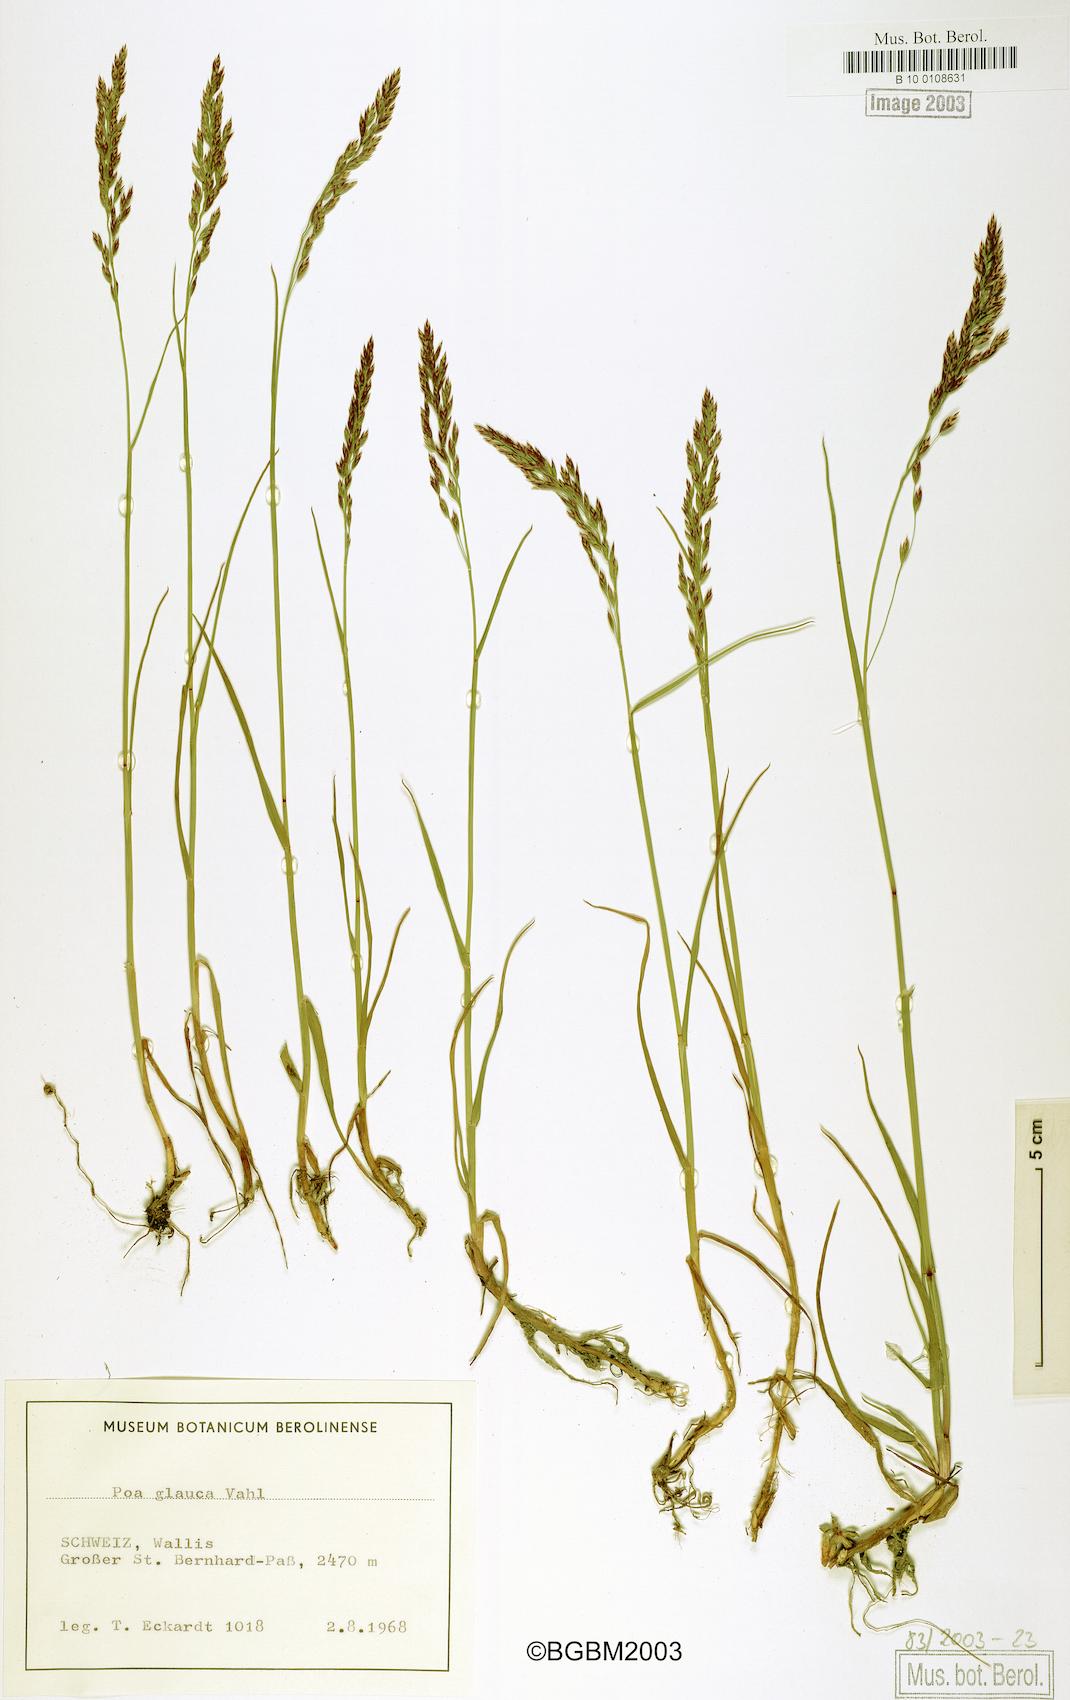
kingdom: Plantae
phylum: Tracheophyta
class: Liliopsida
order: Poales
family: Poaceae
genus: Poa
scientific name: Poa glauca
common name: Glaucous bluegrass
